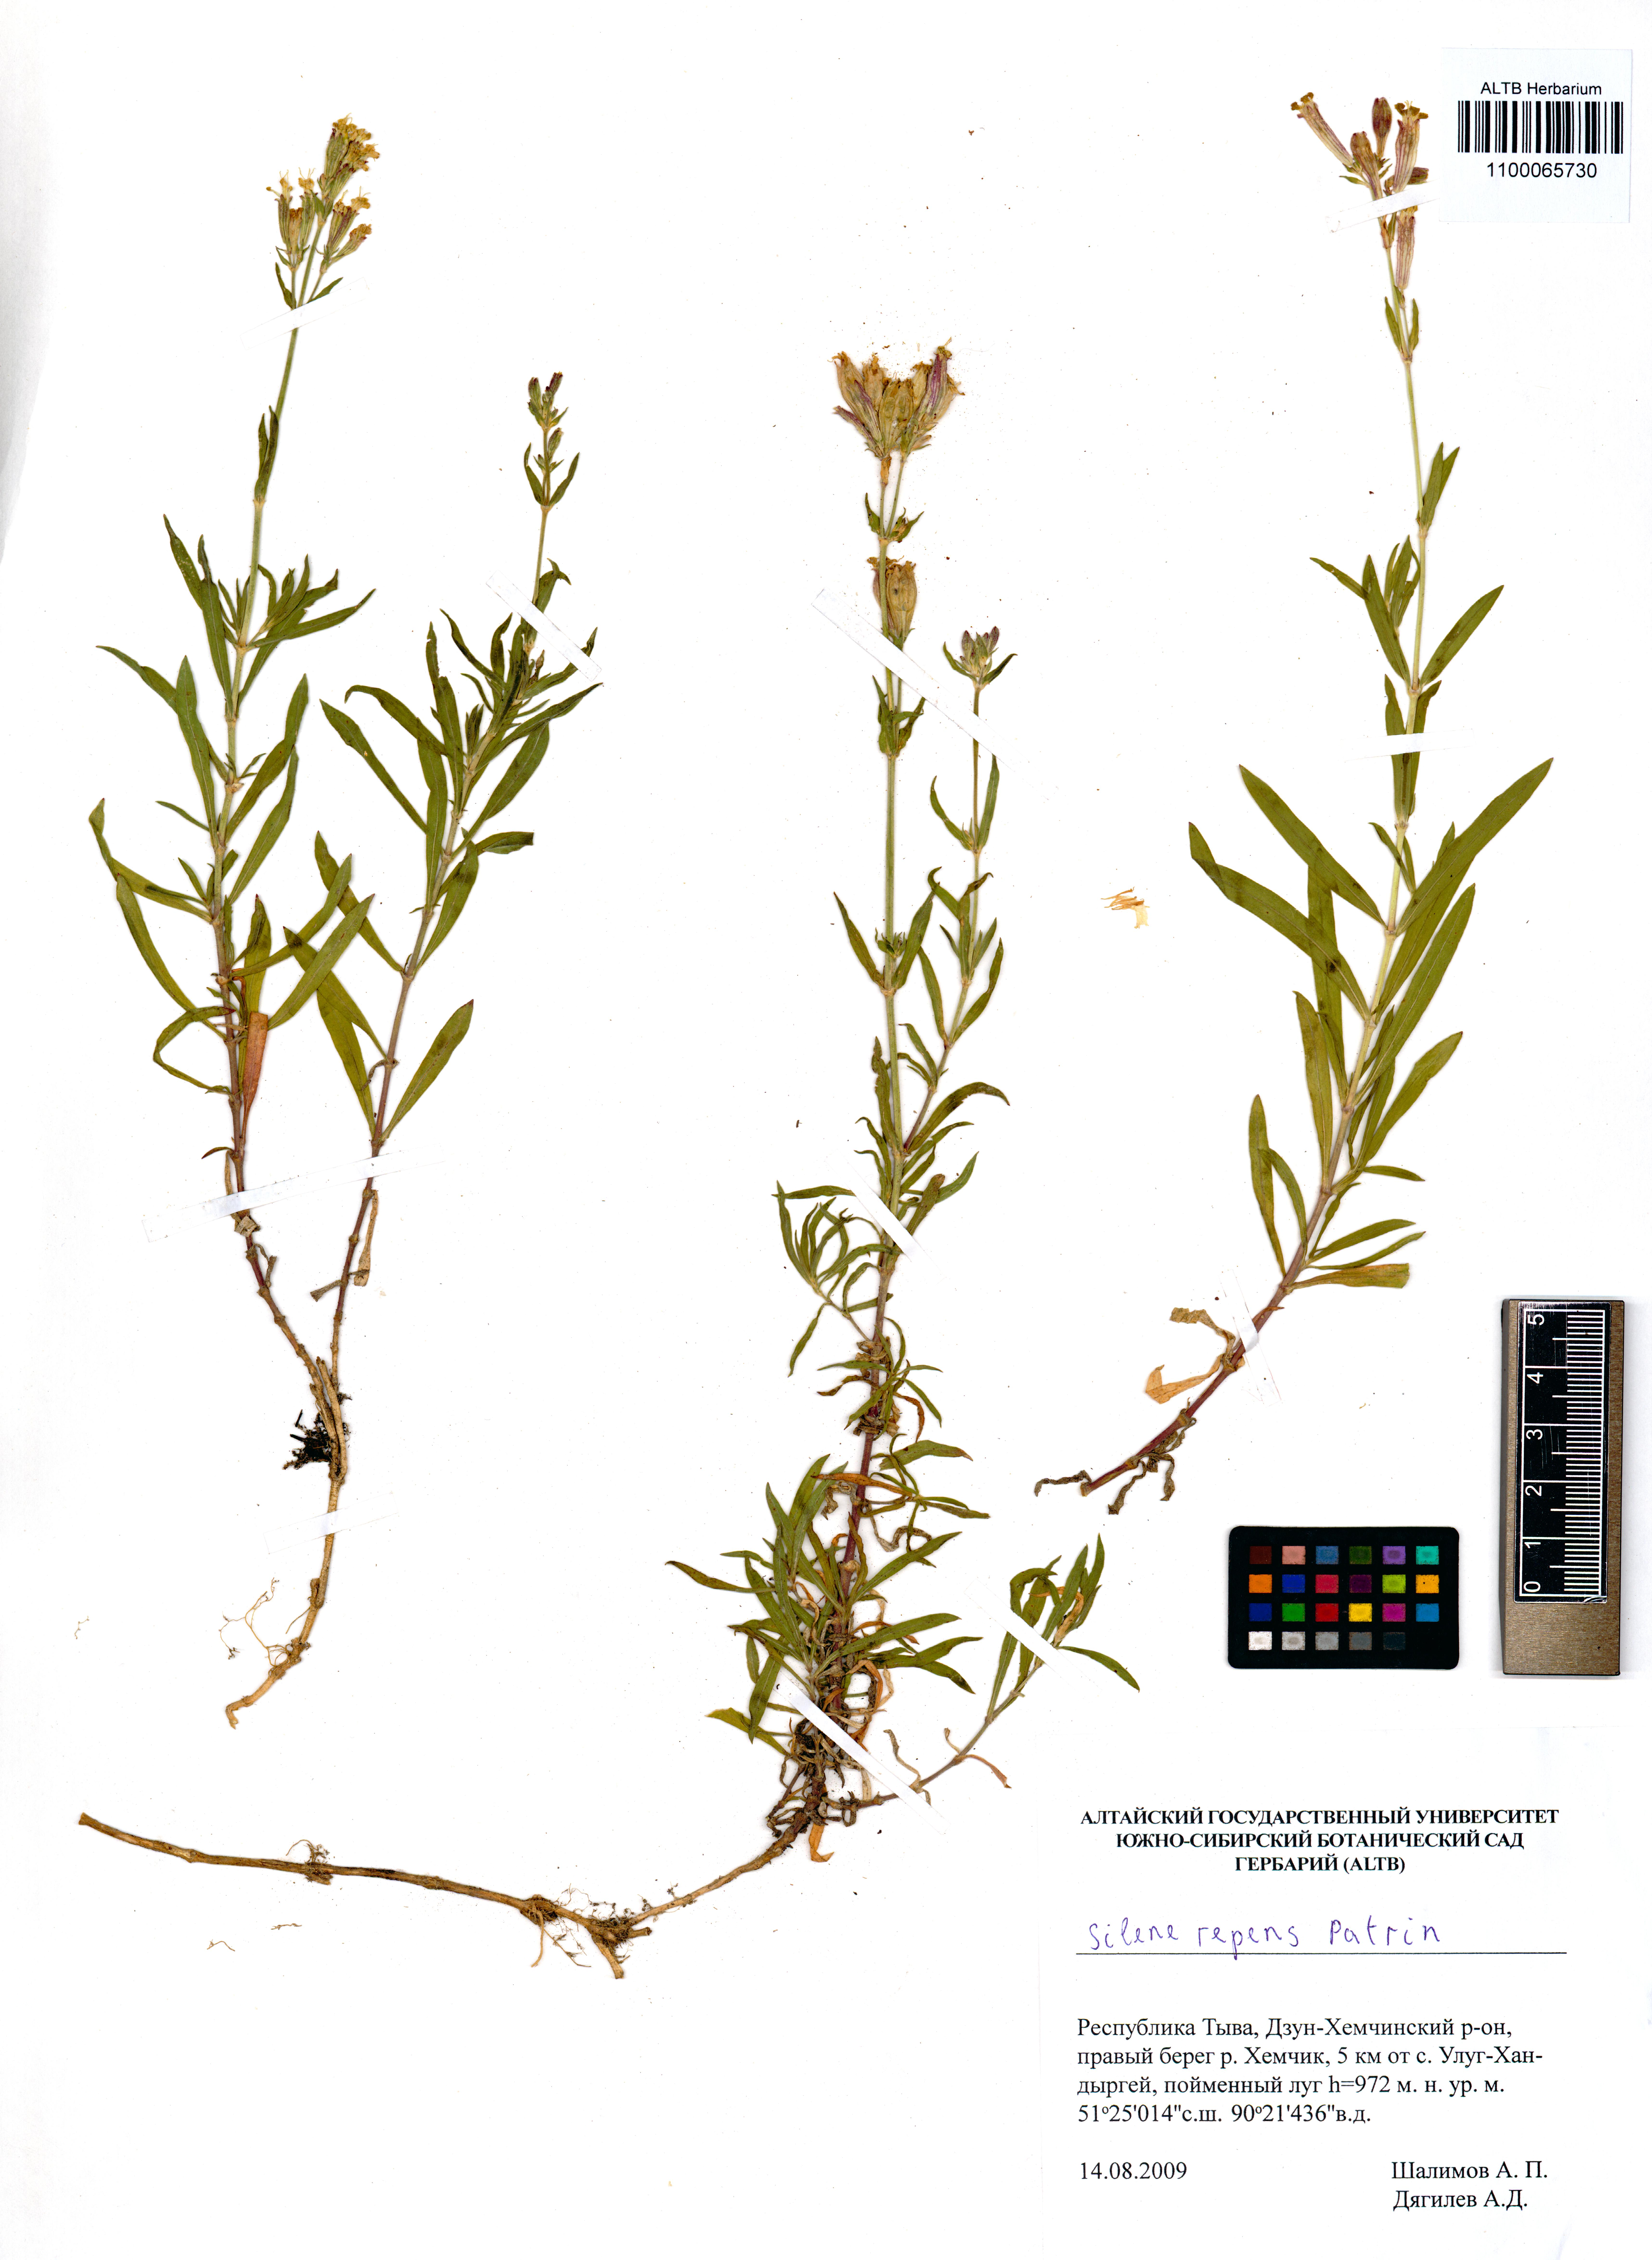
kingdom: Plantae
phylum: Tracheophyta
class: Magnoliopsida
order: Caryophyllales
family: Caryophyllaceae
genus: Silene
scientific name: Silene repens
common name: Pink campion
